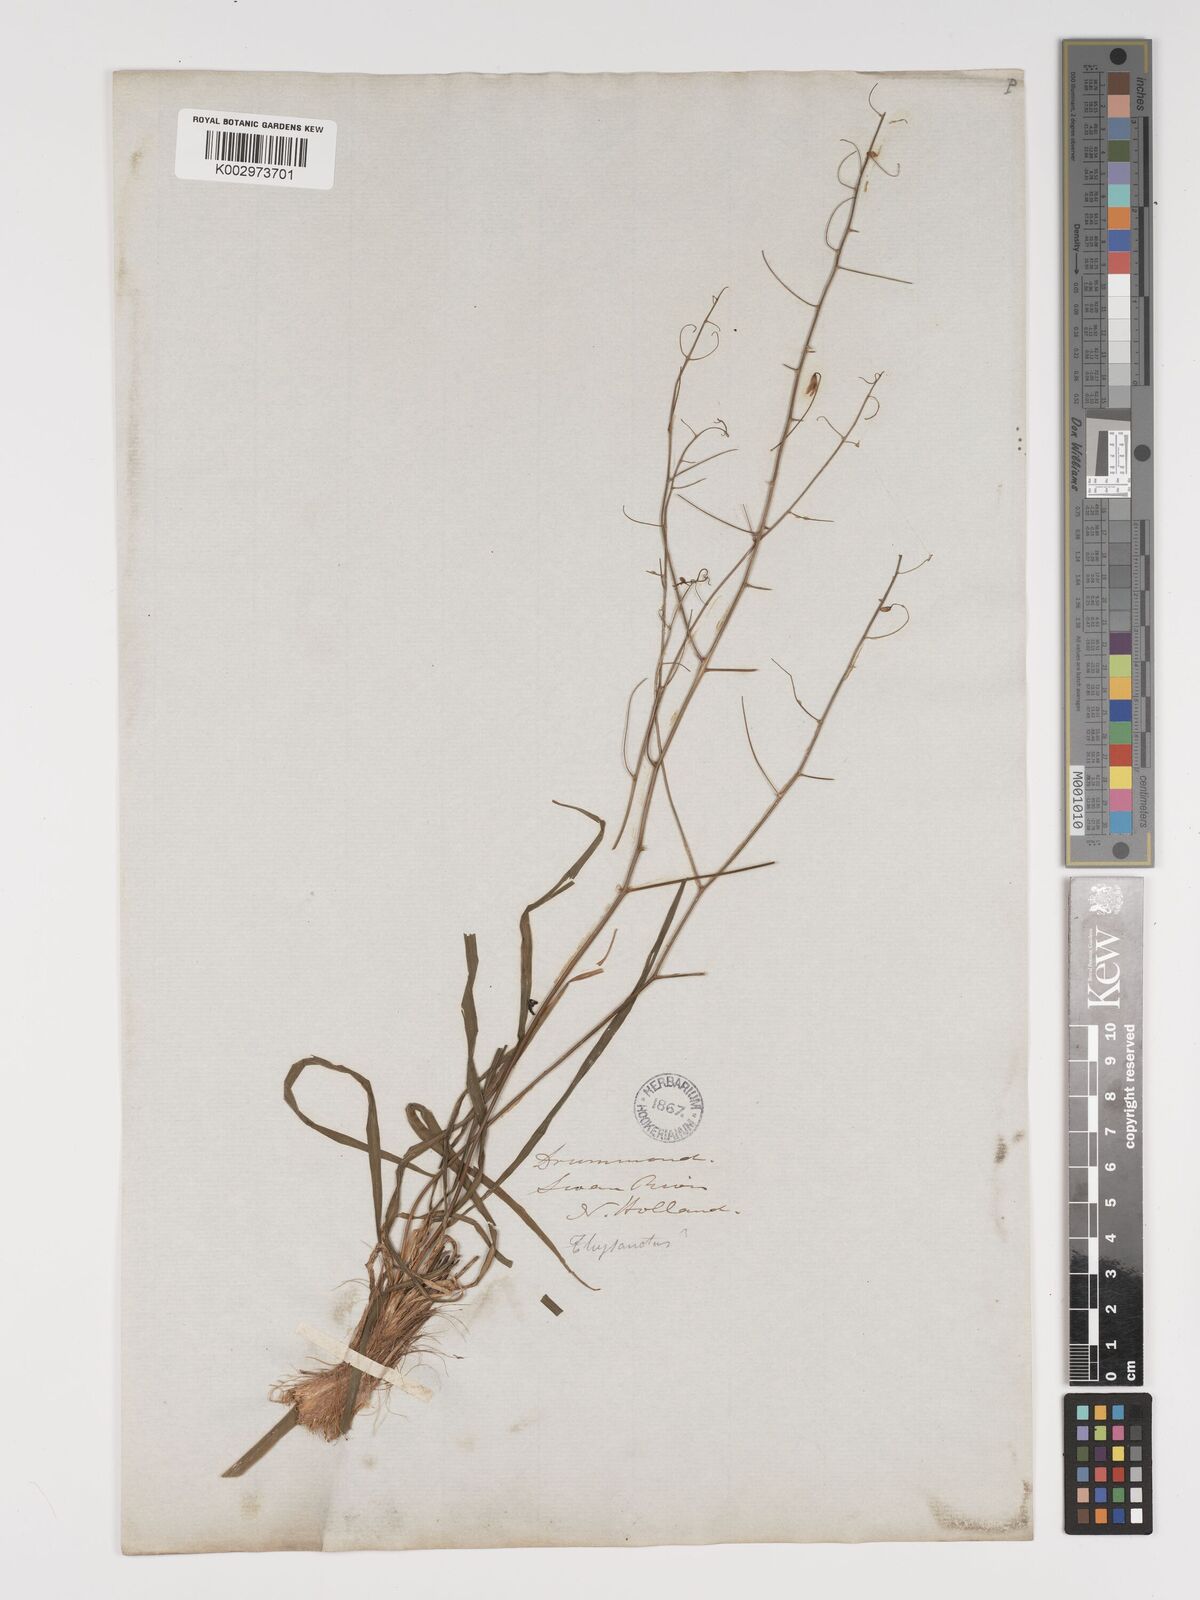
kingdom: Plantae
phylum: Tracheophyta
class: Liliopsida
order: Asparagales
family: Asparagaceae
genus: Arthropodium
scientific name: Arthropodium dyeri
